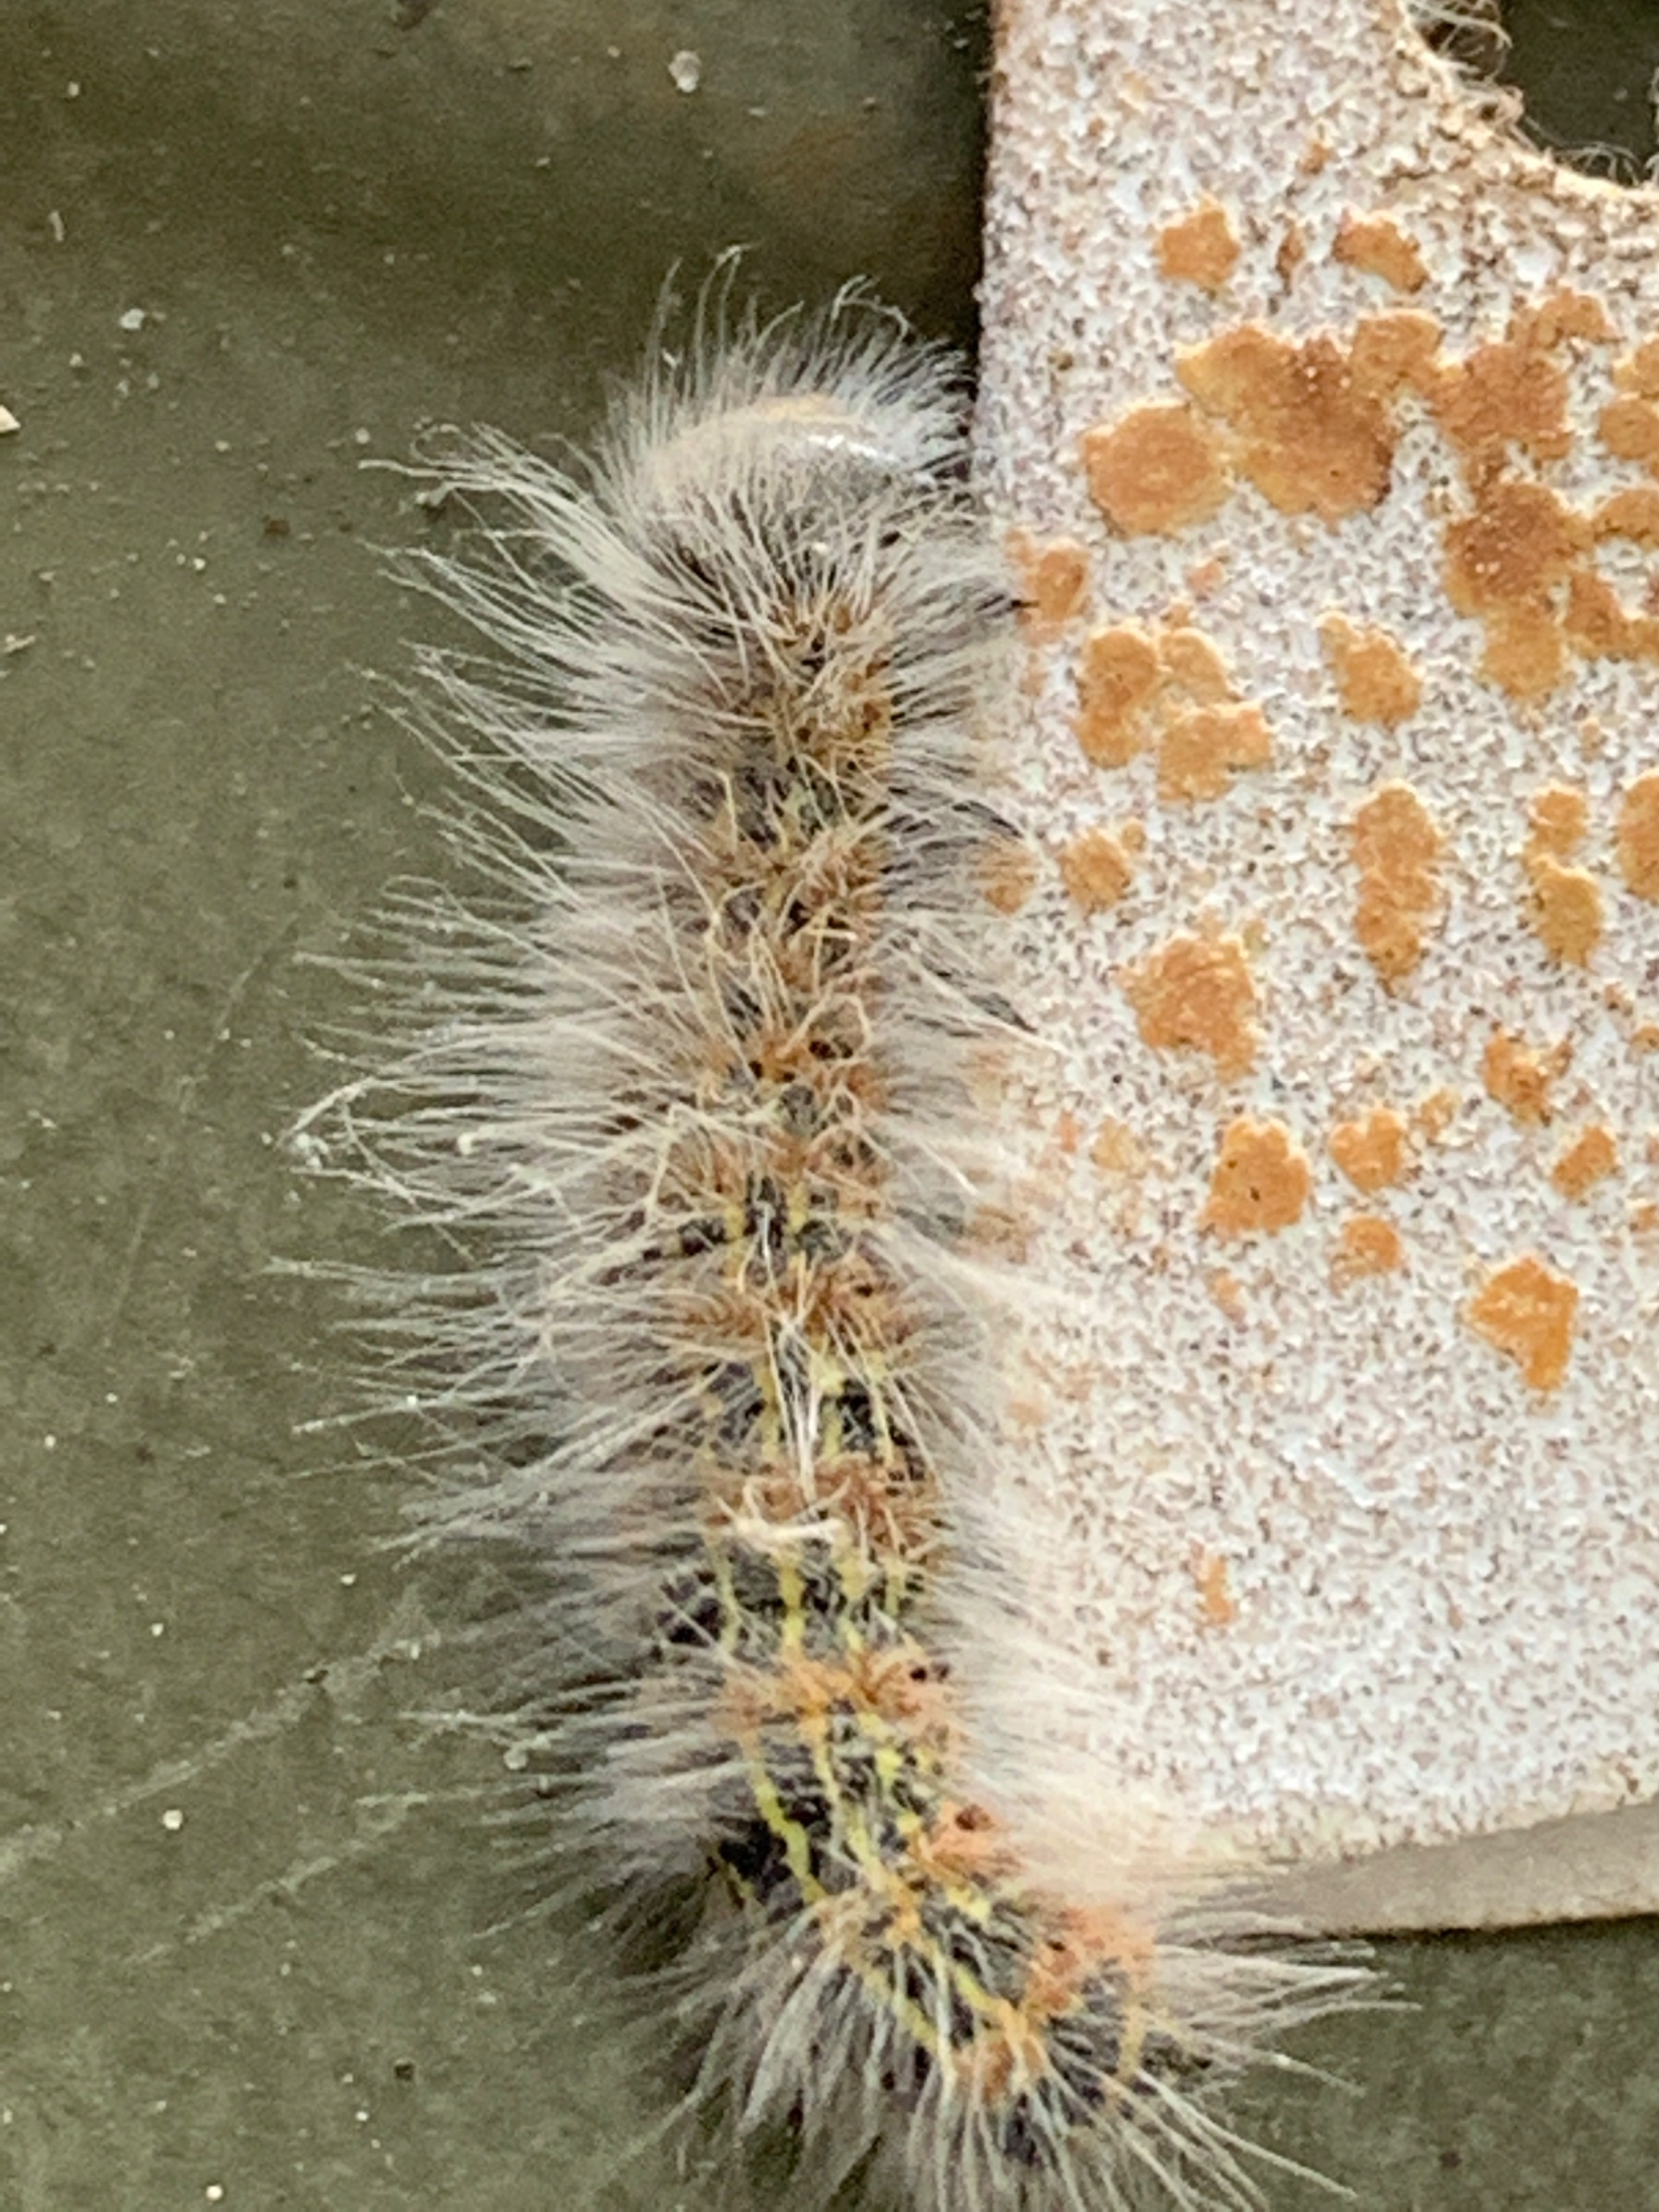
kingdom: Animalia
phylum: Arthropoda
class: Insecta
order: Lepidoptera
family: Notodontidae
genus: Phalera
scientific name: Phalera bucephala
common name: Måneplet
